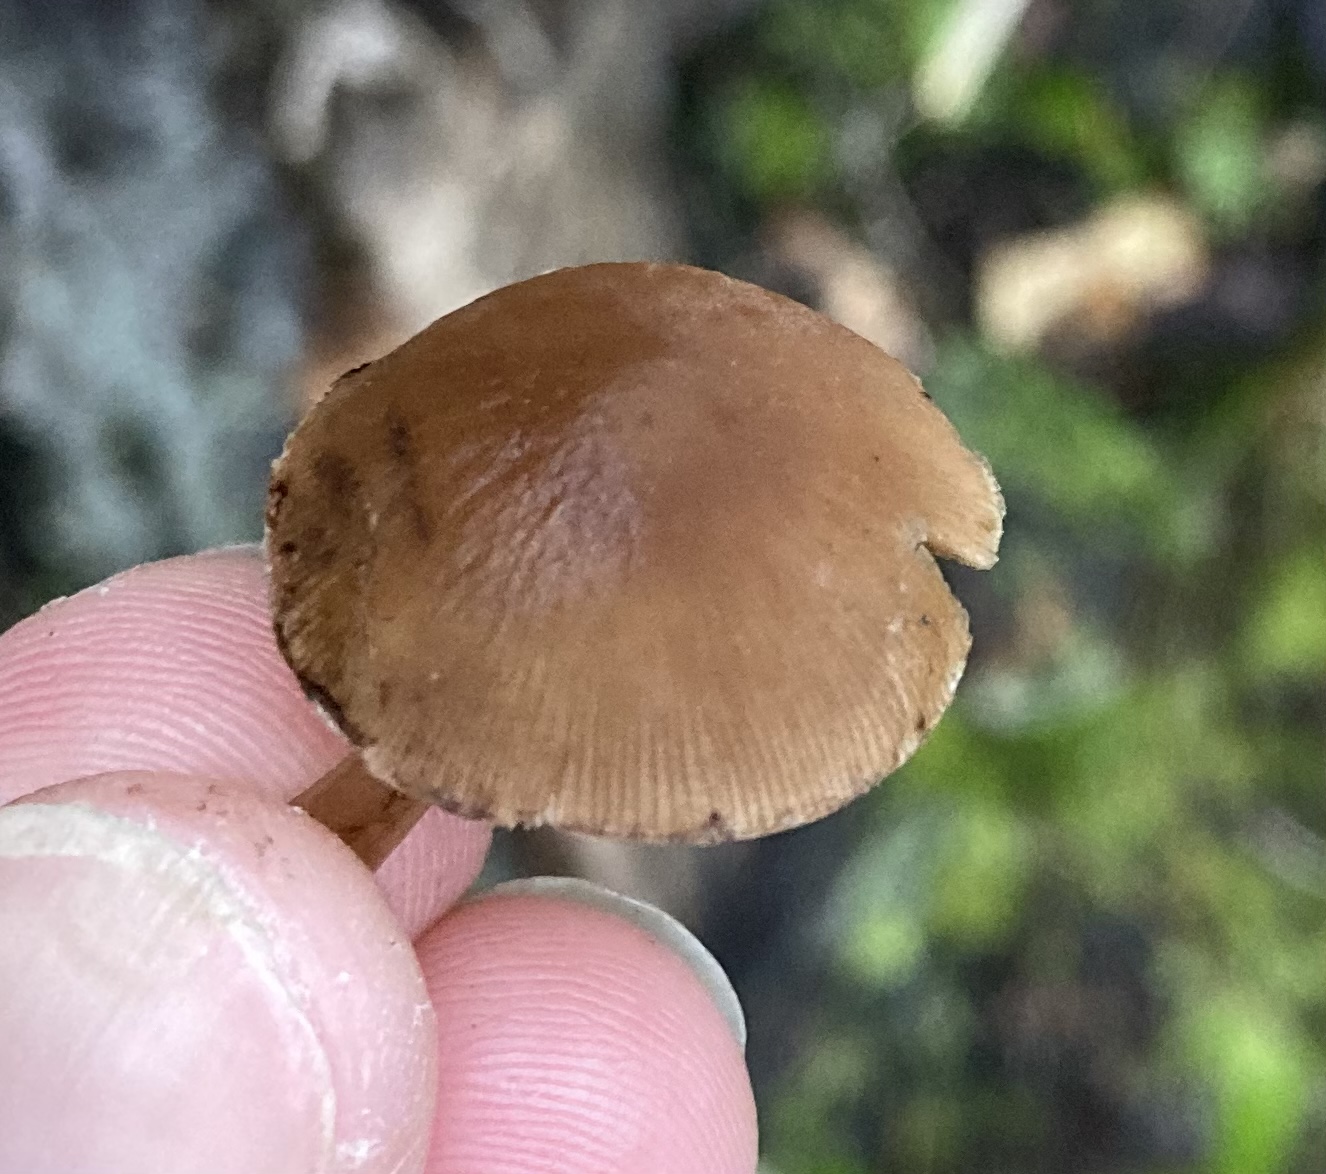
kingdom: Fungi
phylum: Basidiomycota
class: Agaricomycetes
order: Agaricales
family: Psathyrellaceae
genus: Psathyrella
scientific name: Psathyrella piluliformis
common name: lysstokket mørkhat
